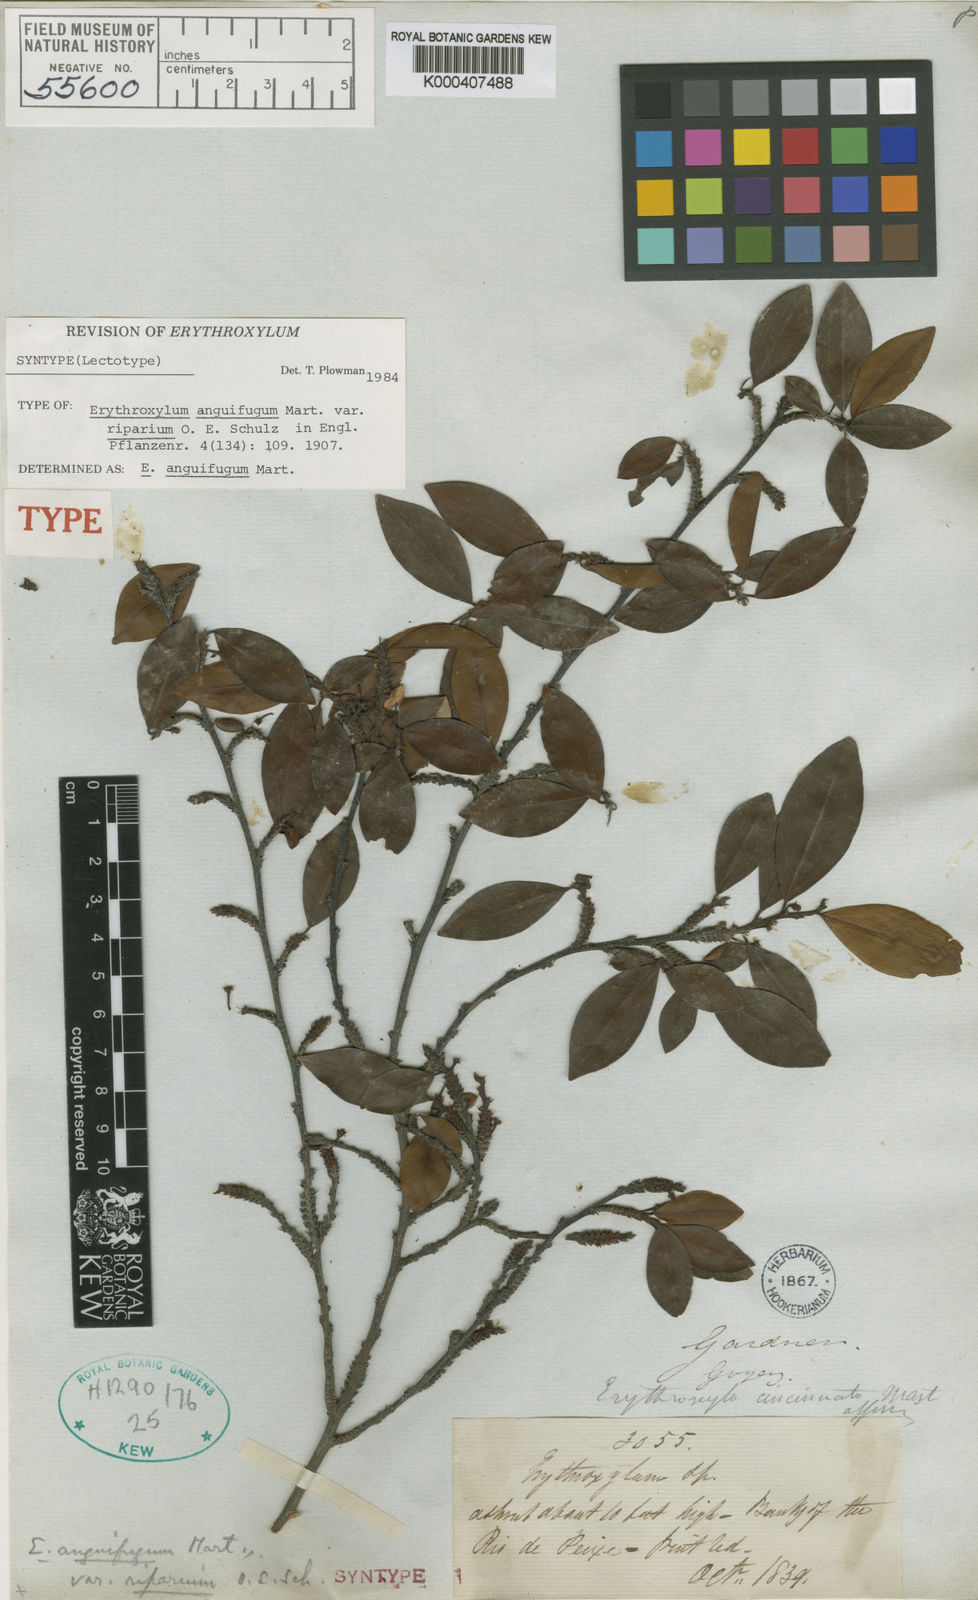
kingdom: Plantae
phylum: Tracheophyta
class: Magnoliopsida
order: Malpighiales
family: Erythroxylaceae
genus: Erythroxylum
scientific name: Erythroxylum anguifugum
